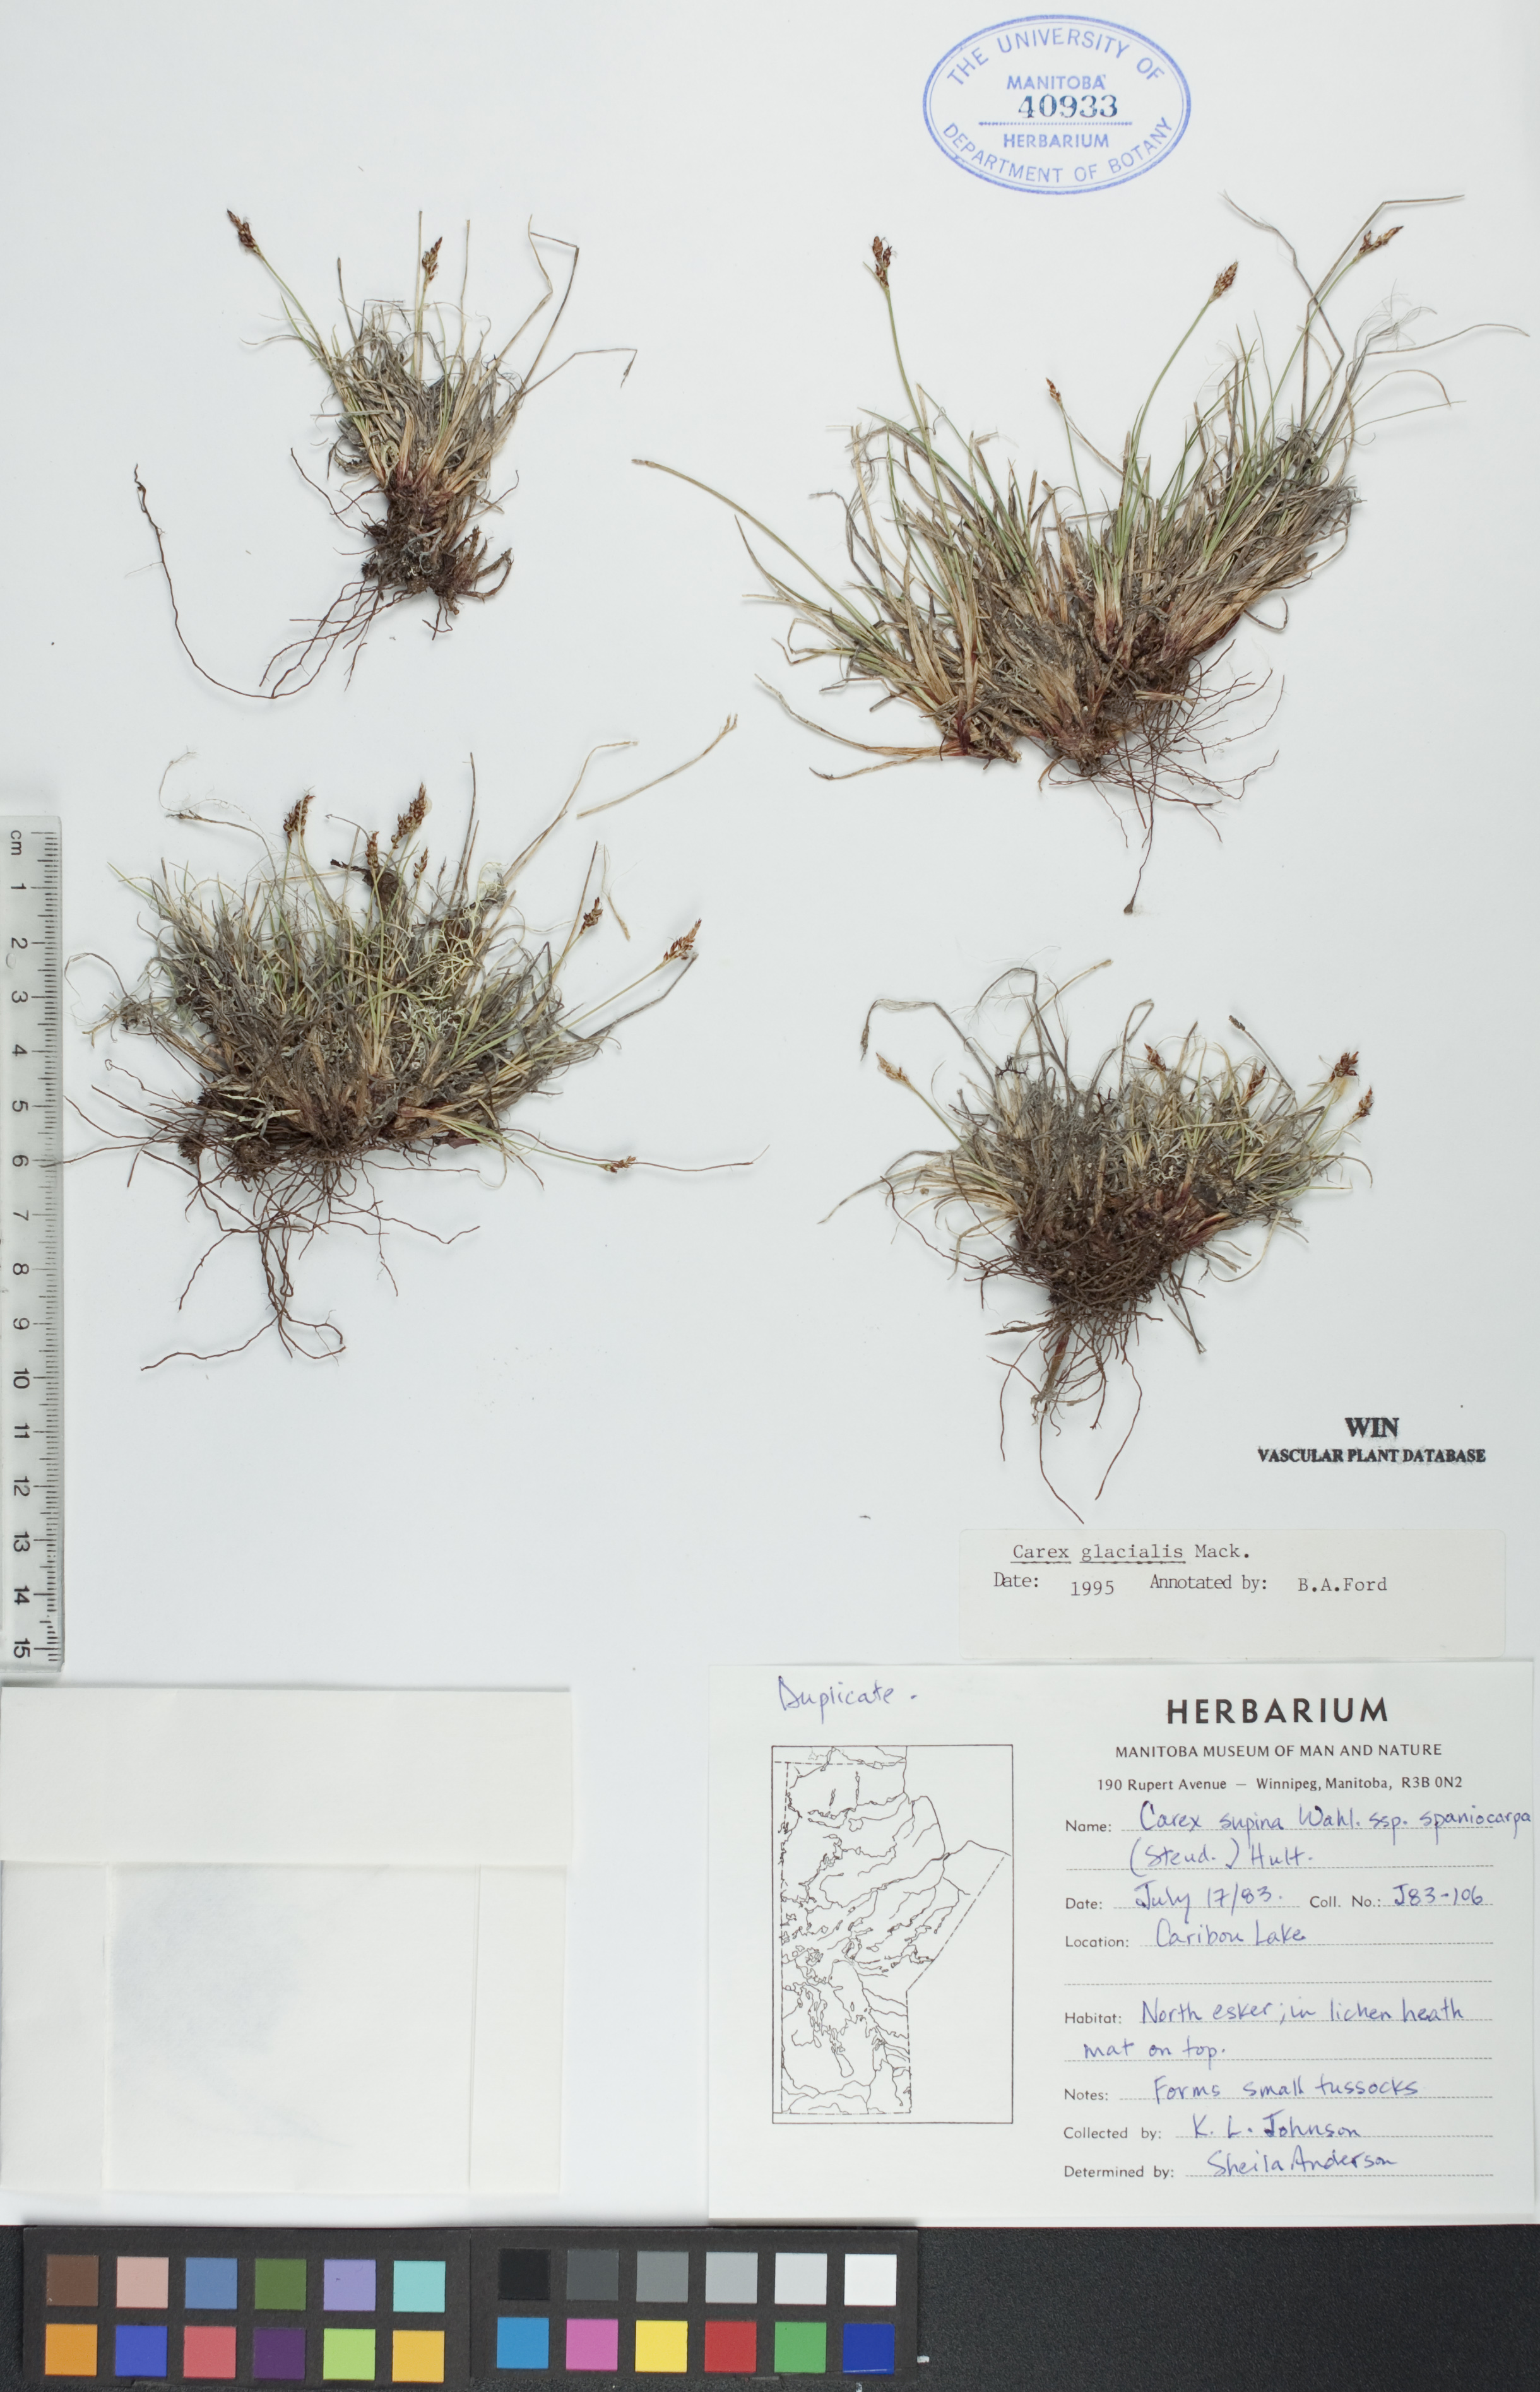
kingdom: Plantae
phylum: Tracheophyta
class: Liliopsida
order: Poales
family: Cyperaceae
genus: Carex
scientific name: Carex glacialis
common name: Newfoundland sedge
